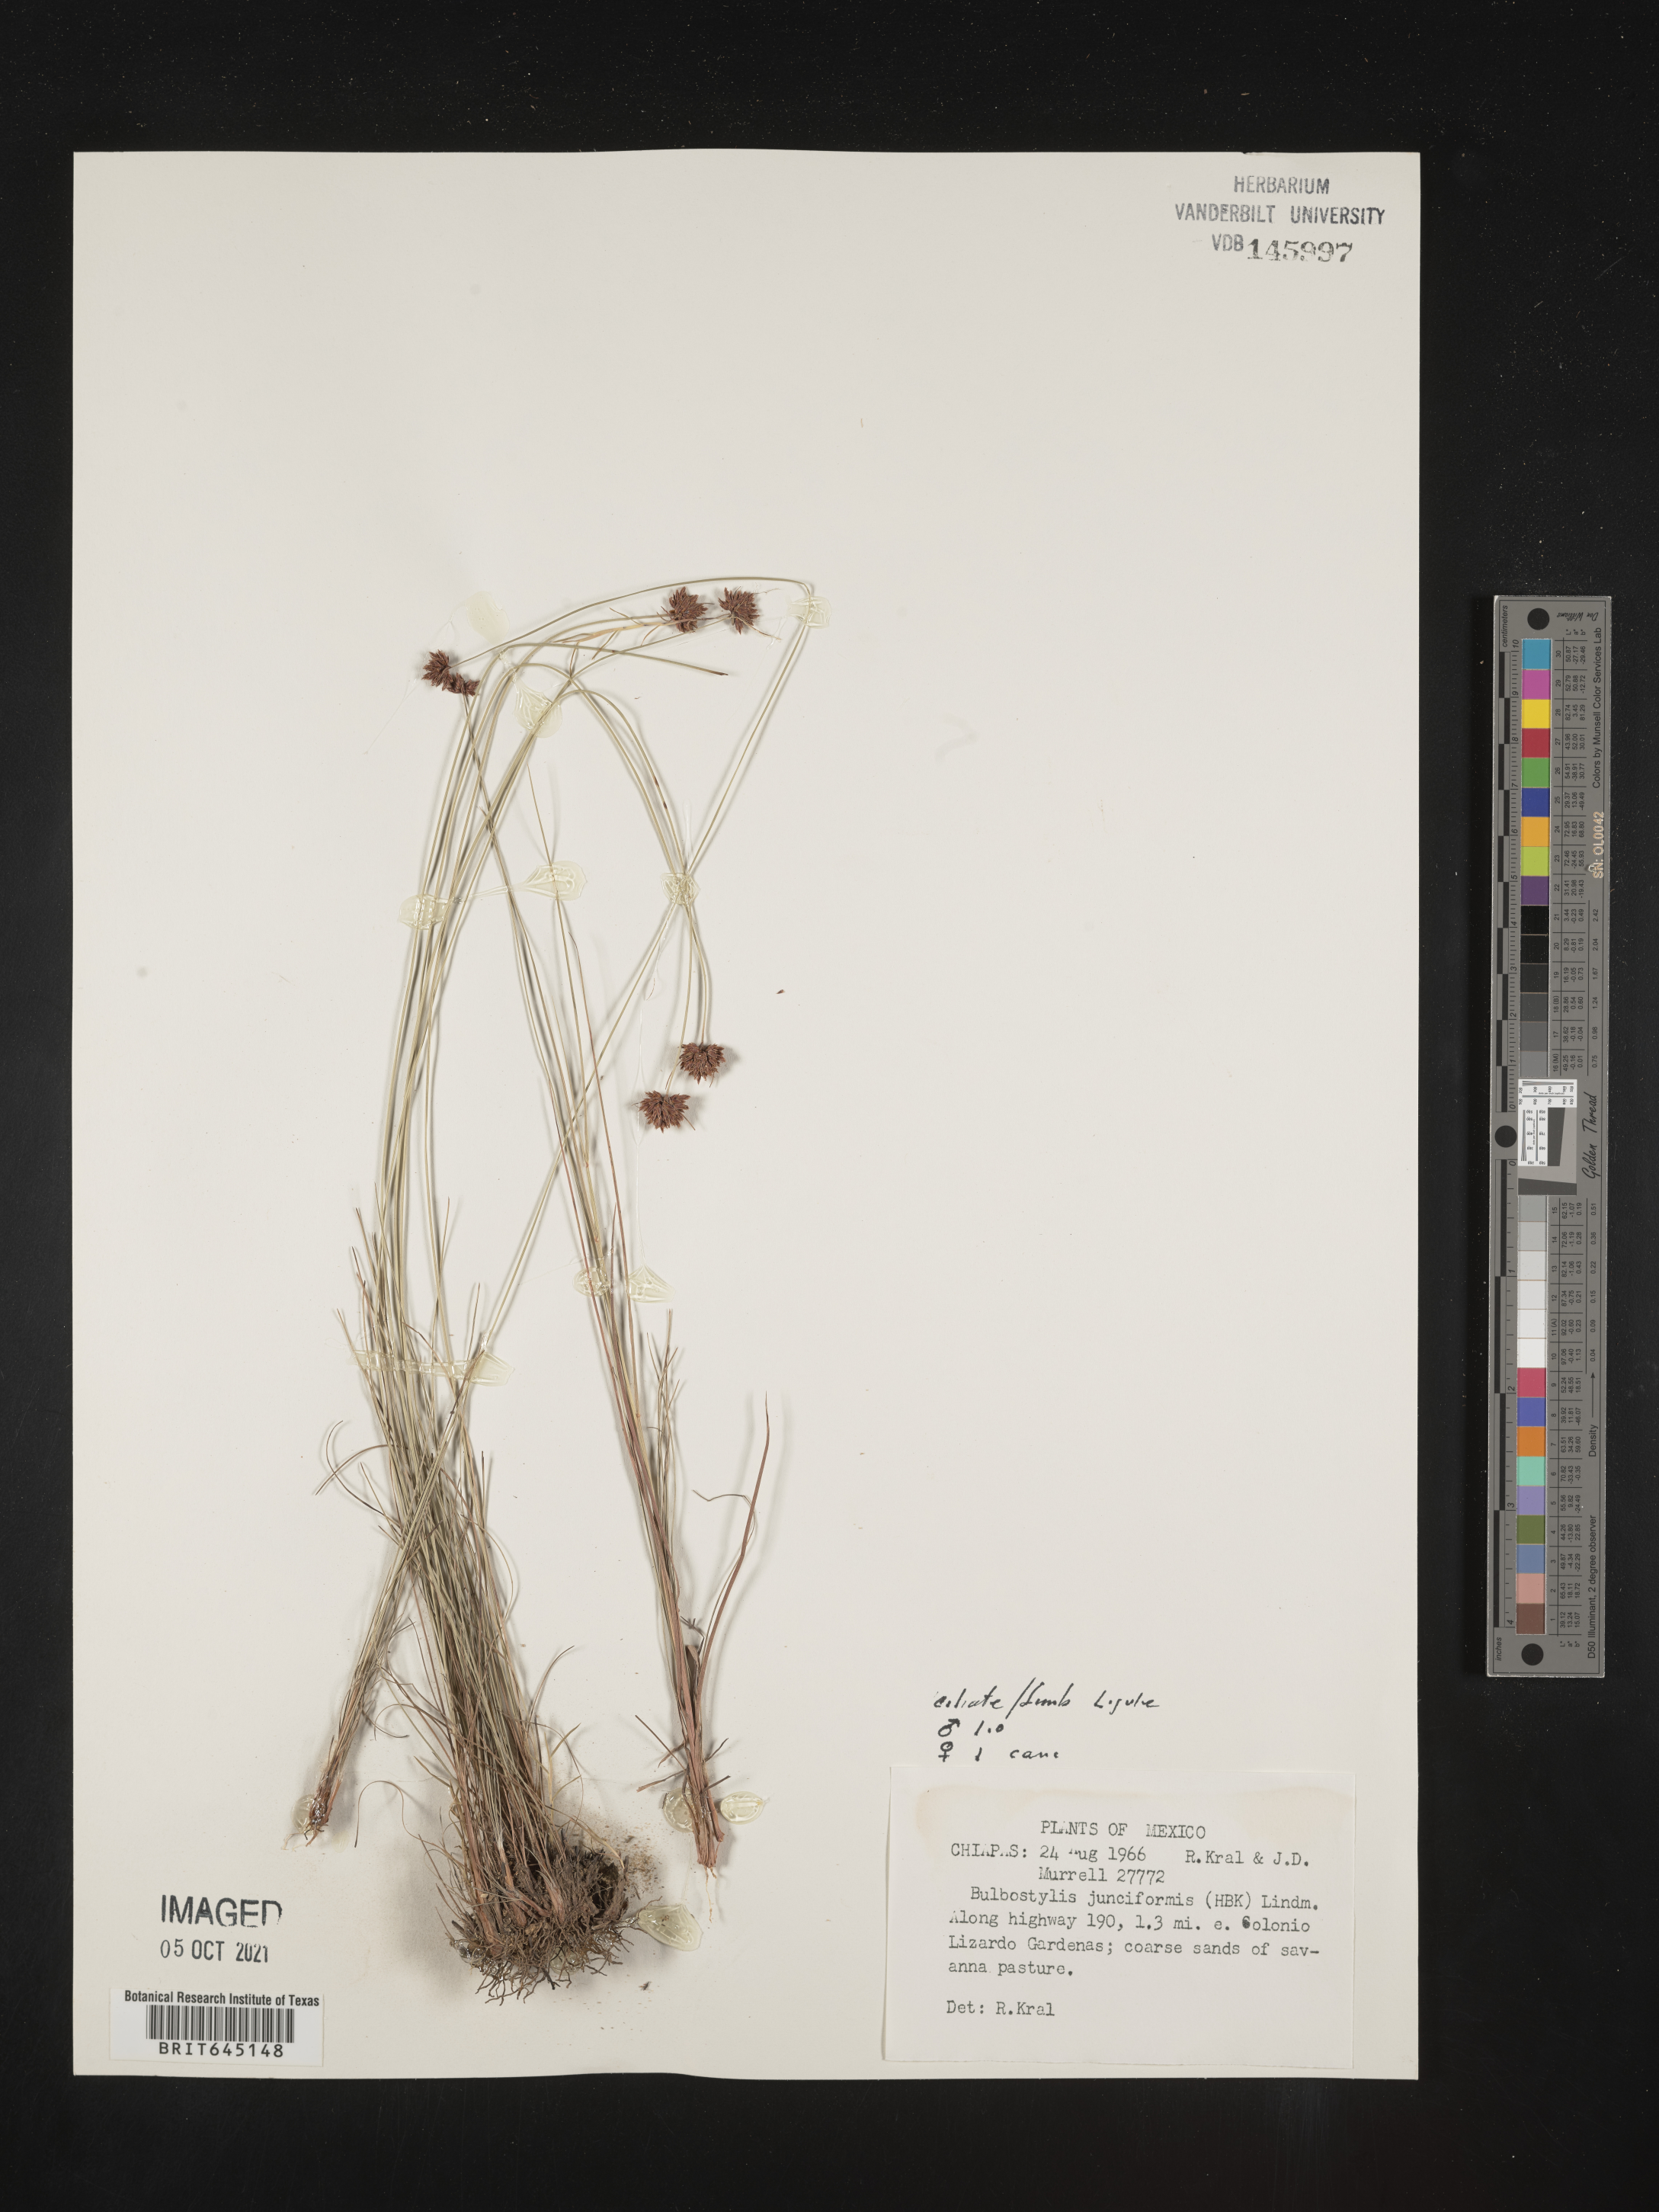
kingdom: Plantae
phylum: Tracheophyta
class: Liliopsida
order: Poales
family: Cyperaceae
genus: Bulbostylis
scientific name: Bulbostylis junciformis
